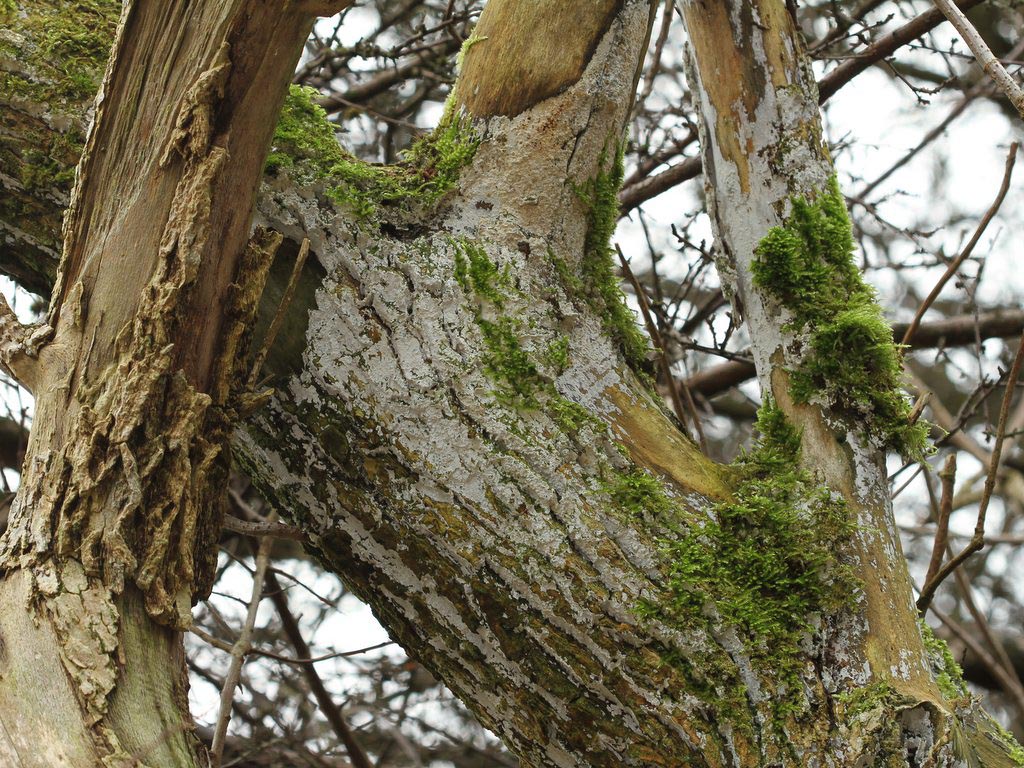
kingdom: Fungi
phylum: Basidiomycota
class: Agaricomycetes
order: Corticiales
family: Corticiaceae
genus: Lyomyces
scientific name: Lyomyces sambuci
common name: almindelig hyldehinde
